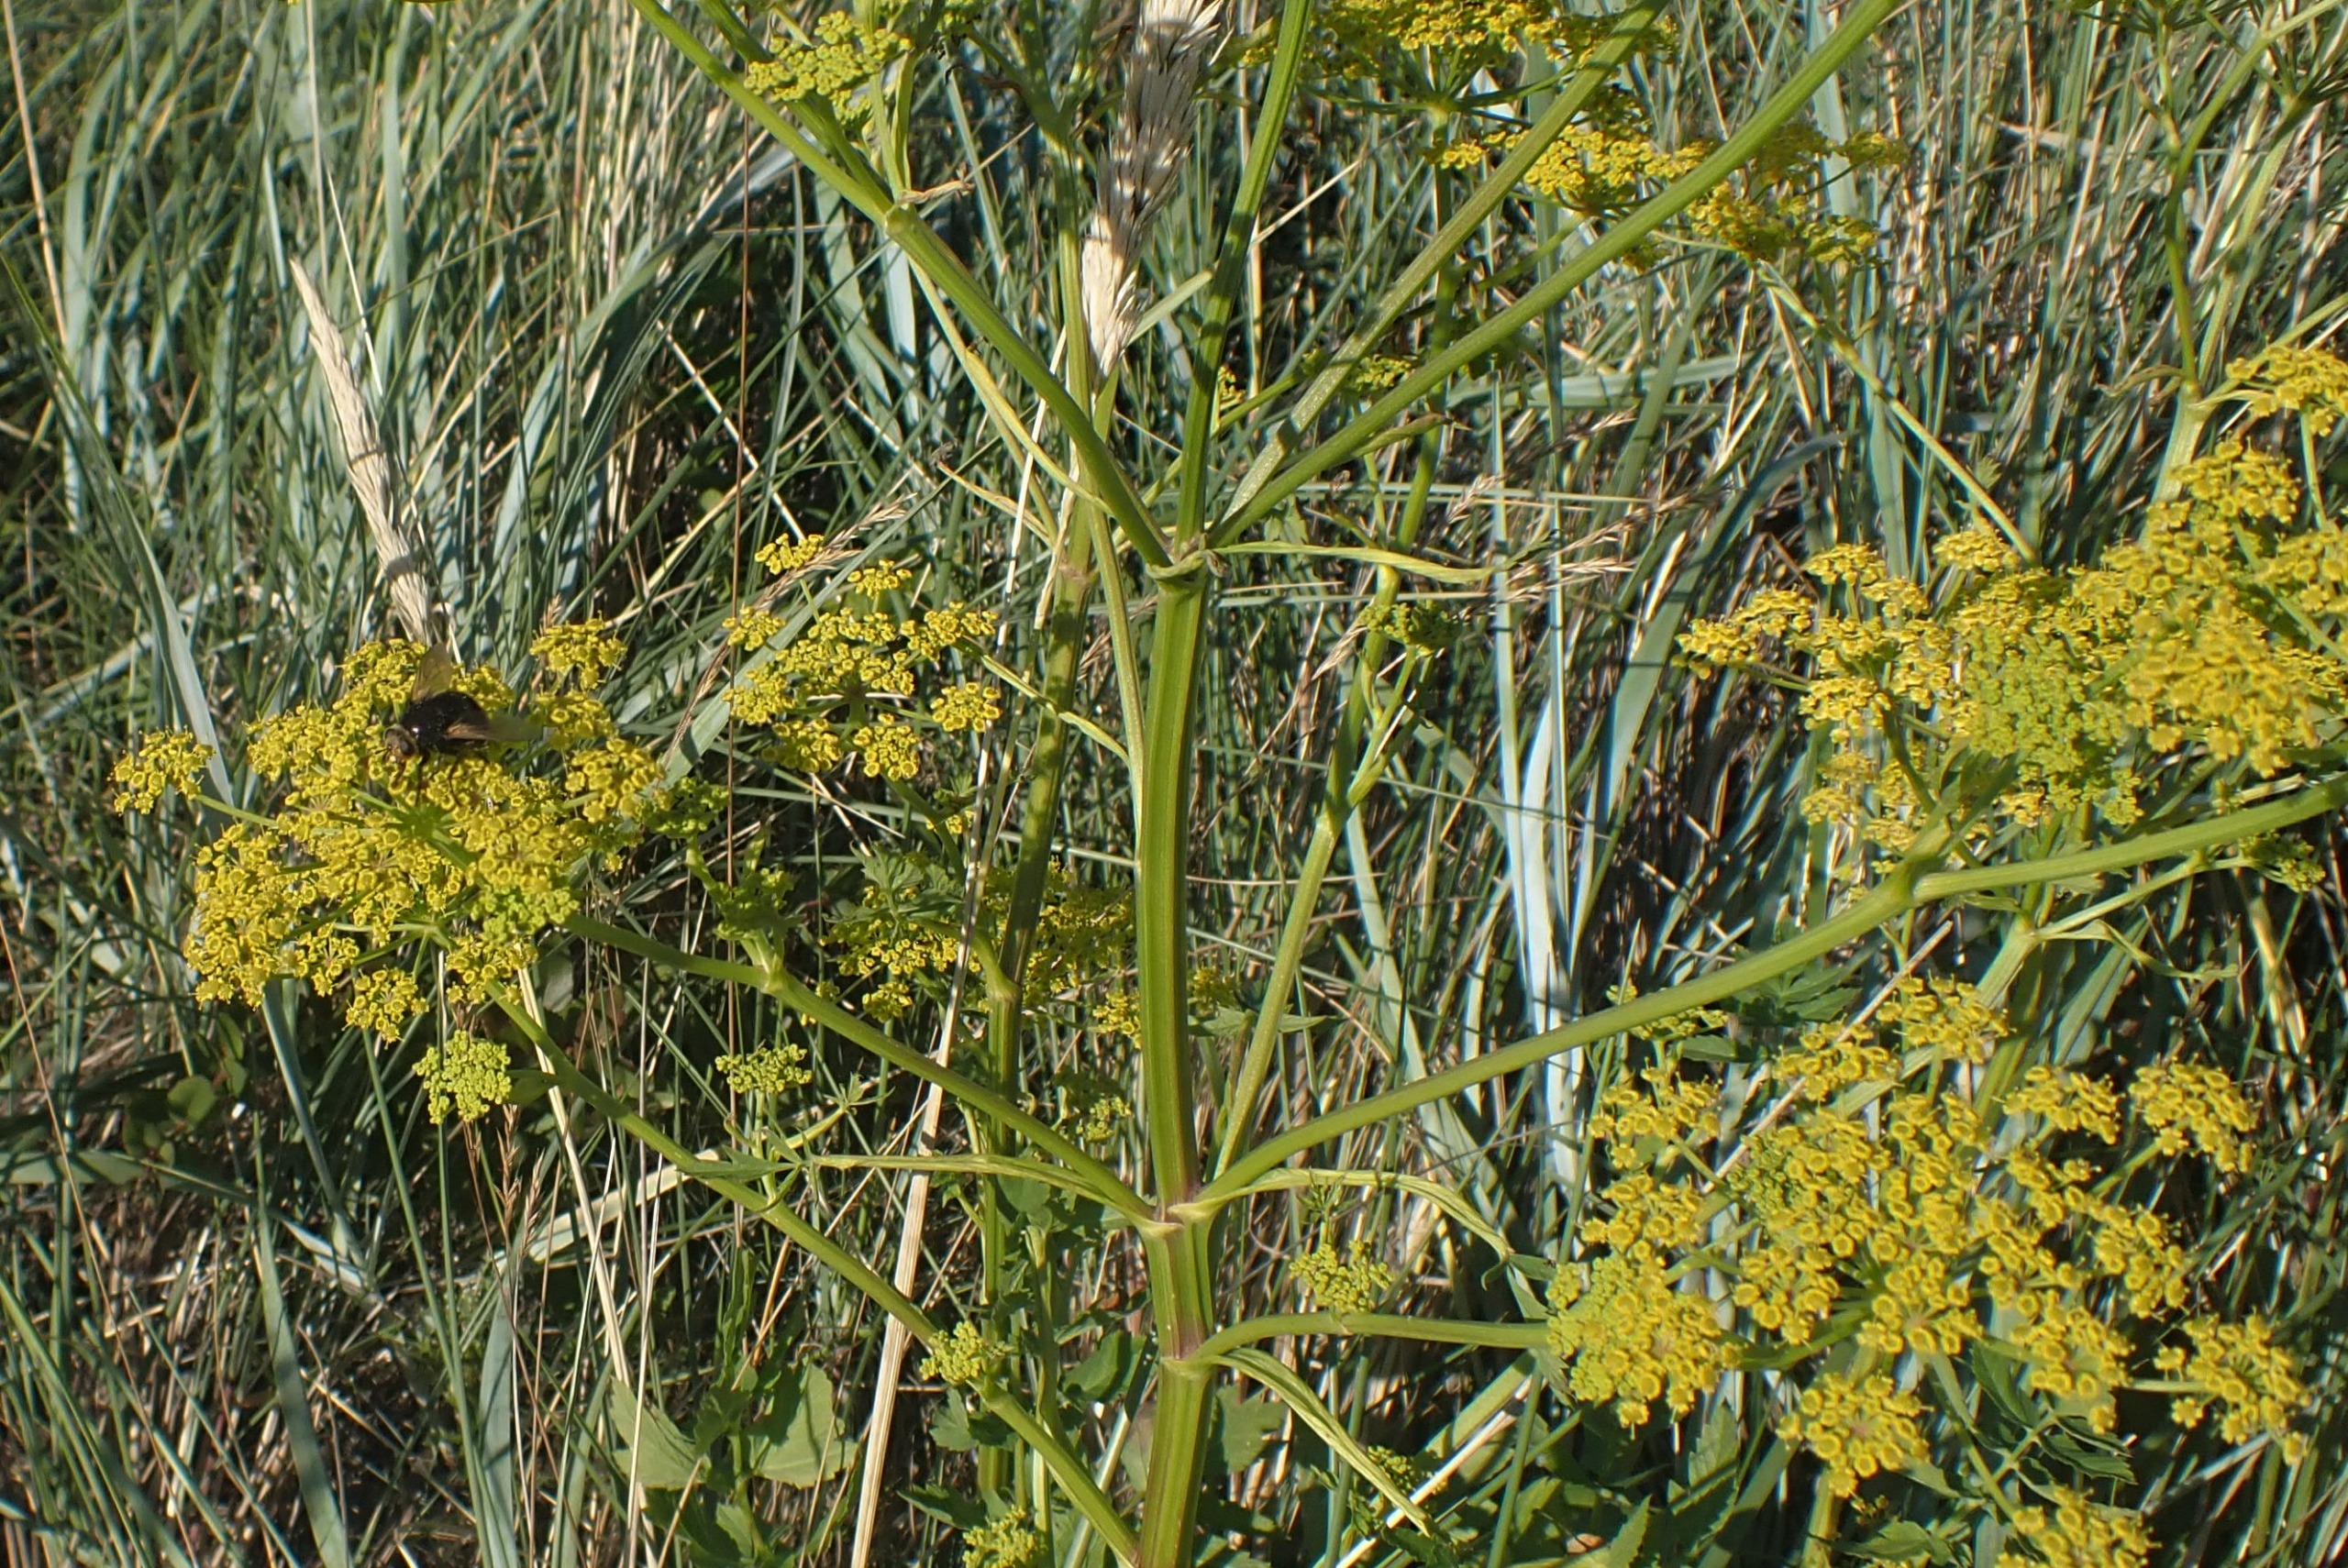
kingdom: Plantae
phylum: Tracheophyta
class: Magnoliopsida
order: Apiales
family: Apiaceae
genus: Pastinaca
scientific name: Pastinaca sativa
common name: Pastinak
